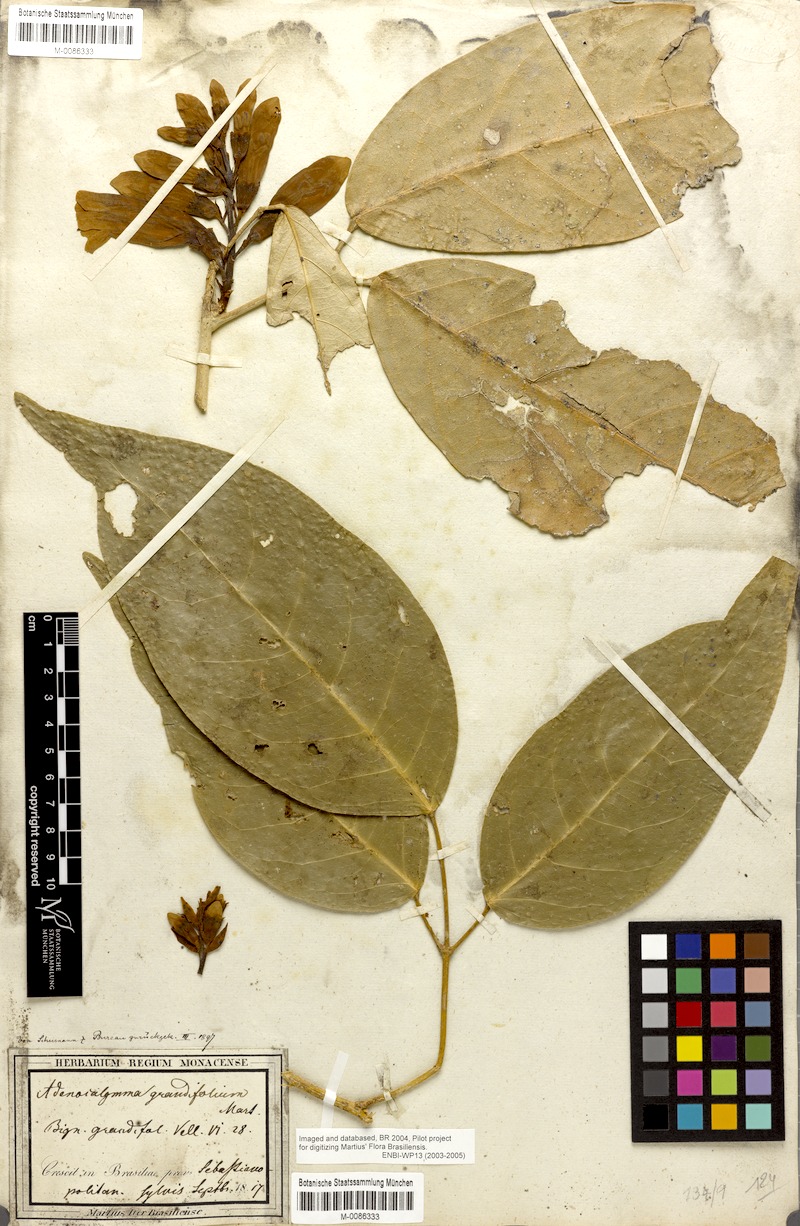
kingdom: Plantae
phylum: Tracheophyta
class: Magnoliopsida
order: Lamiales
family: Bignoniaceae
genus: Adenocalymma
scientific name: Adenocalymma ternatum
